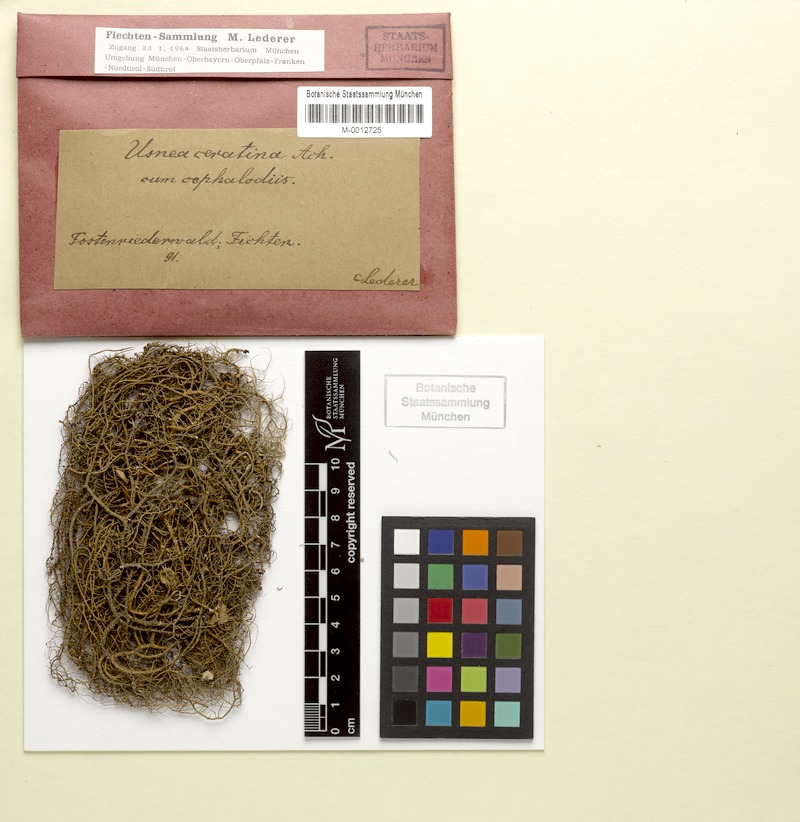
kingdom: Fungi
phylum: Ascomycota
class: Lecanoromycetes
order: Lecanorales
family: Parmeliaceae
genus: Usnea
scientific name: Usnea ceratina
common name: Warty beard lichen
